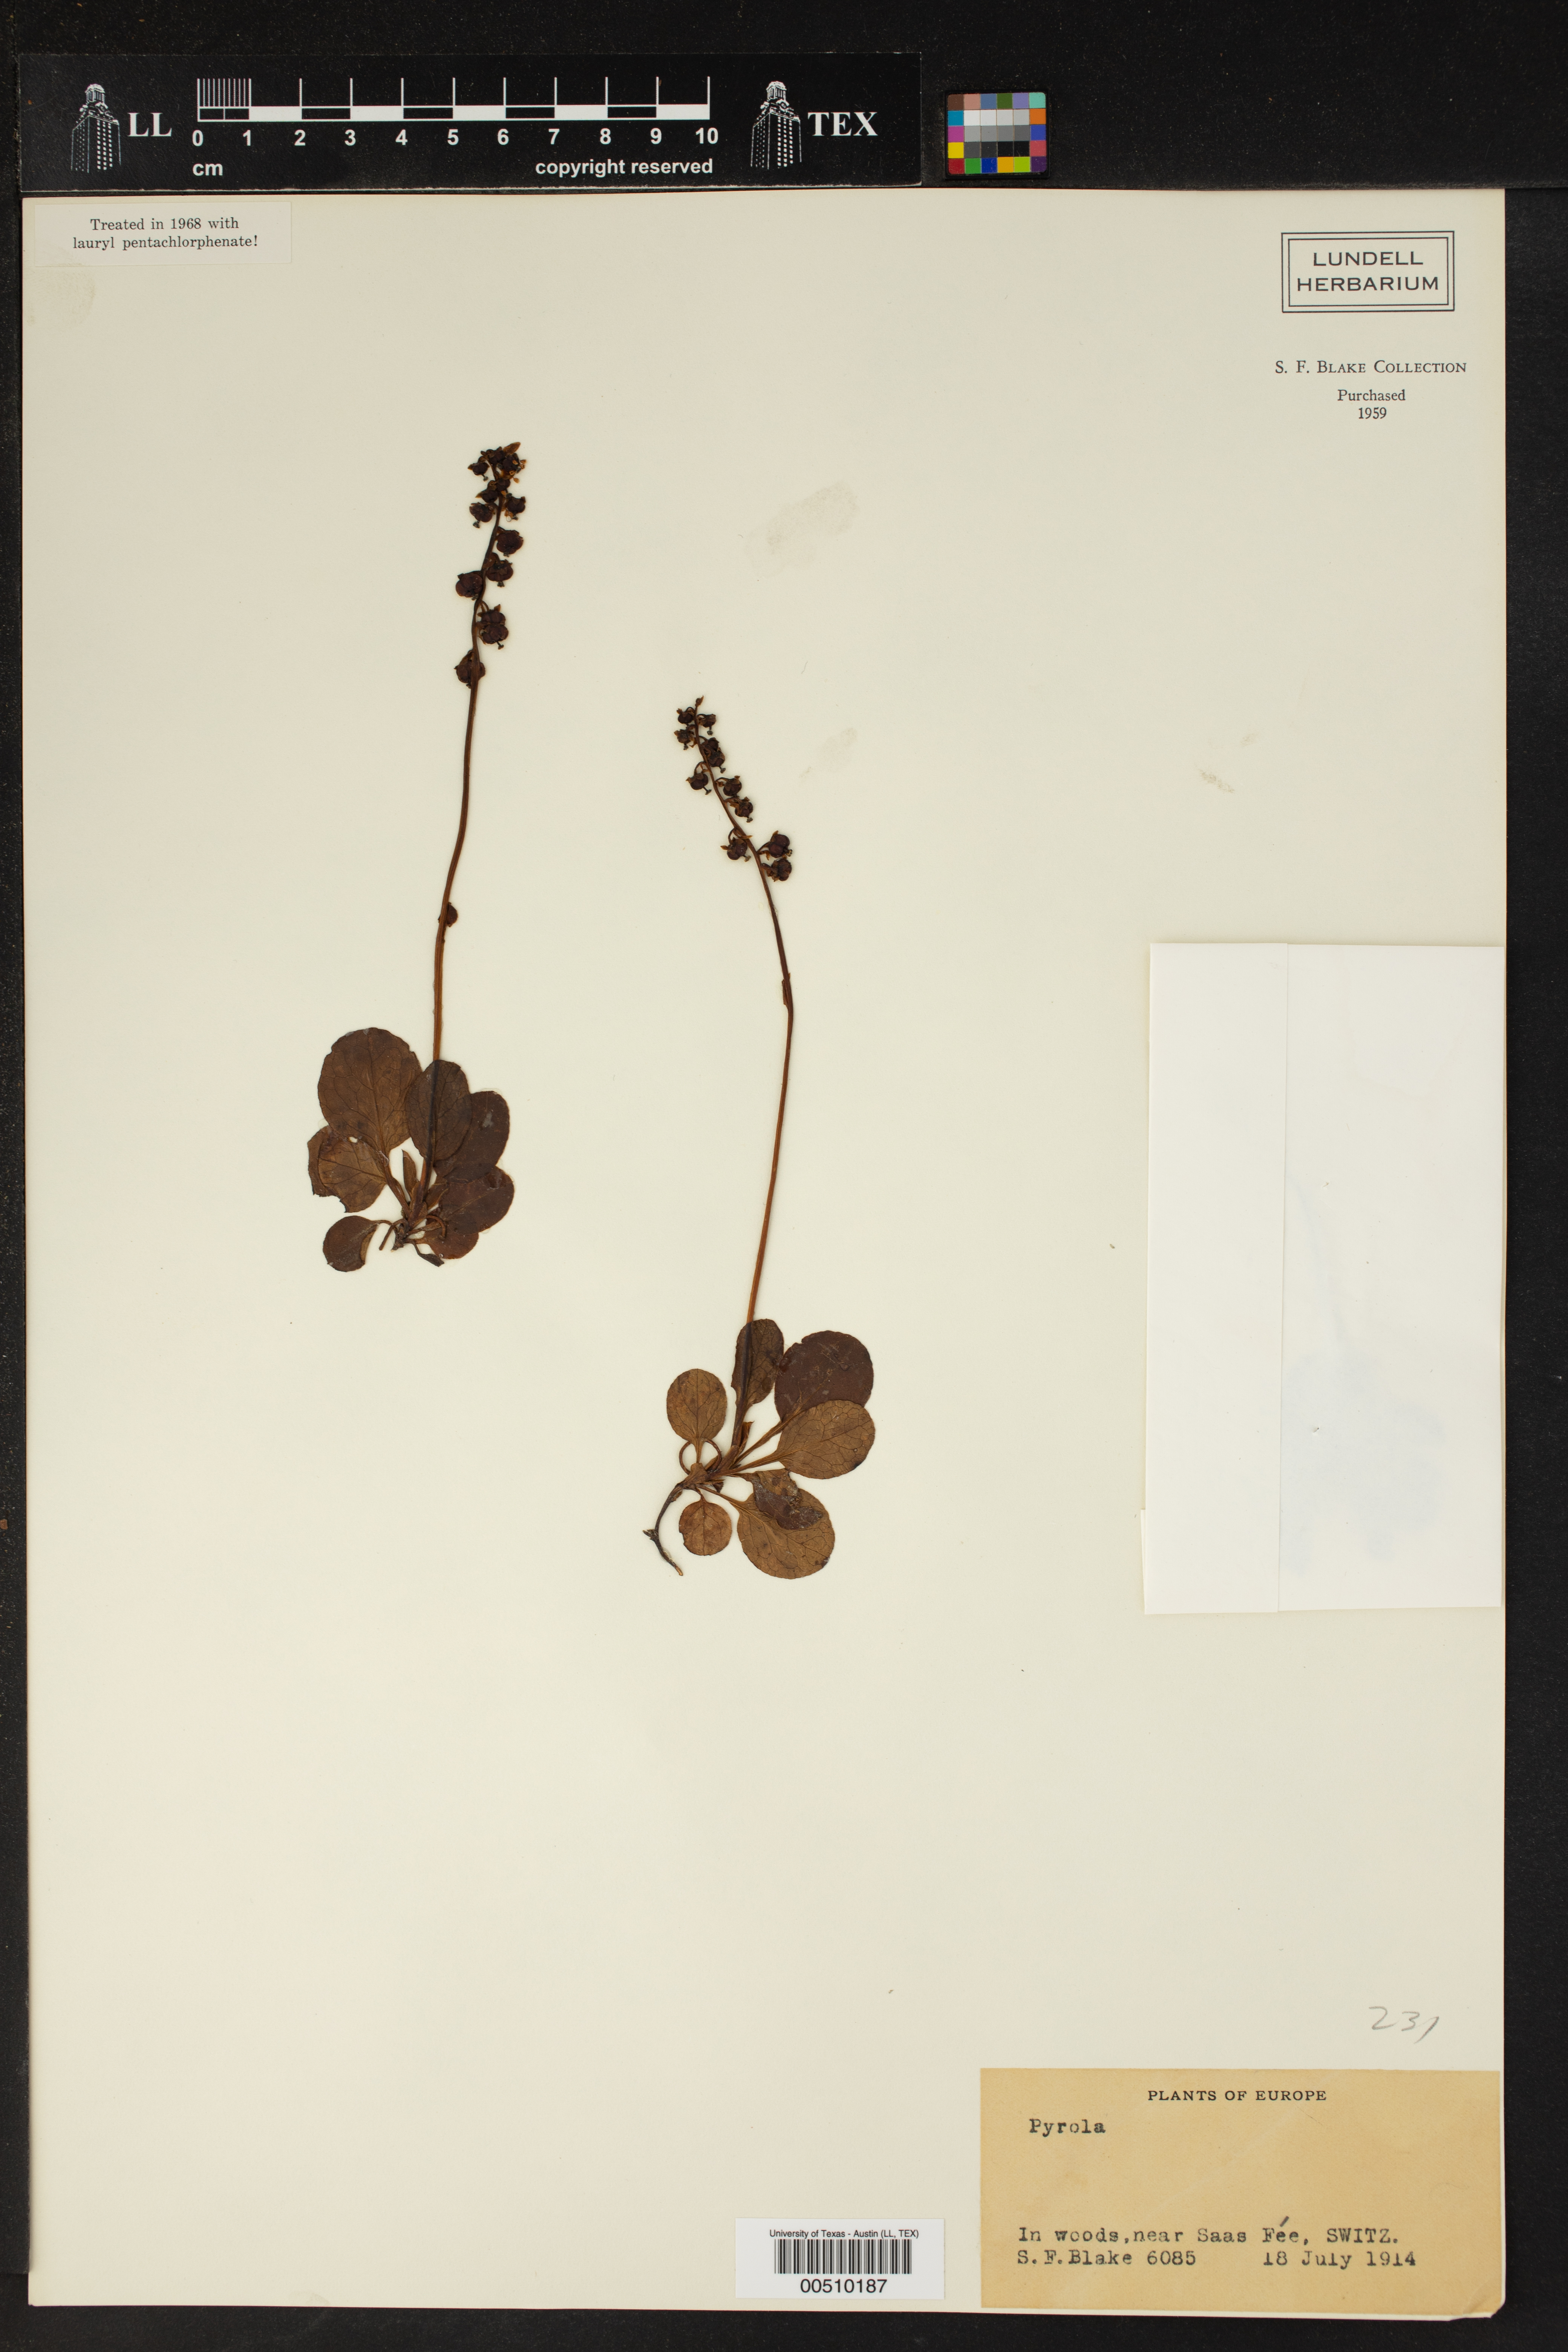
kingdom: Plantae
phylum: Tracheophyta
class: Magnoliopsida
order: Ericales
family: Ericaceae
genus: Pyrola
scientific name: Pyrola
